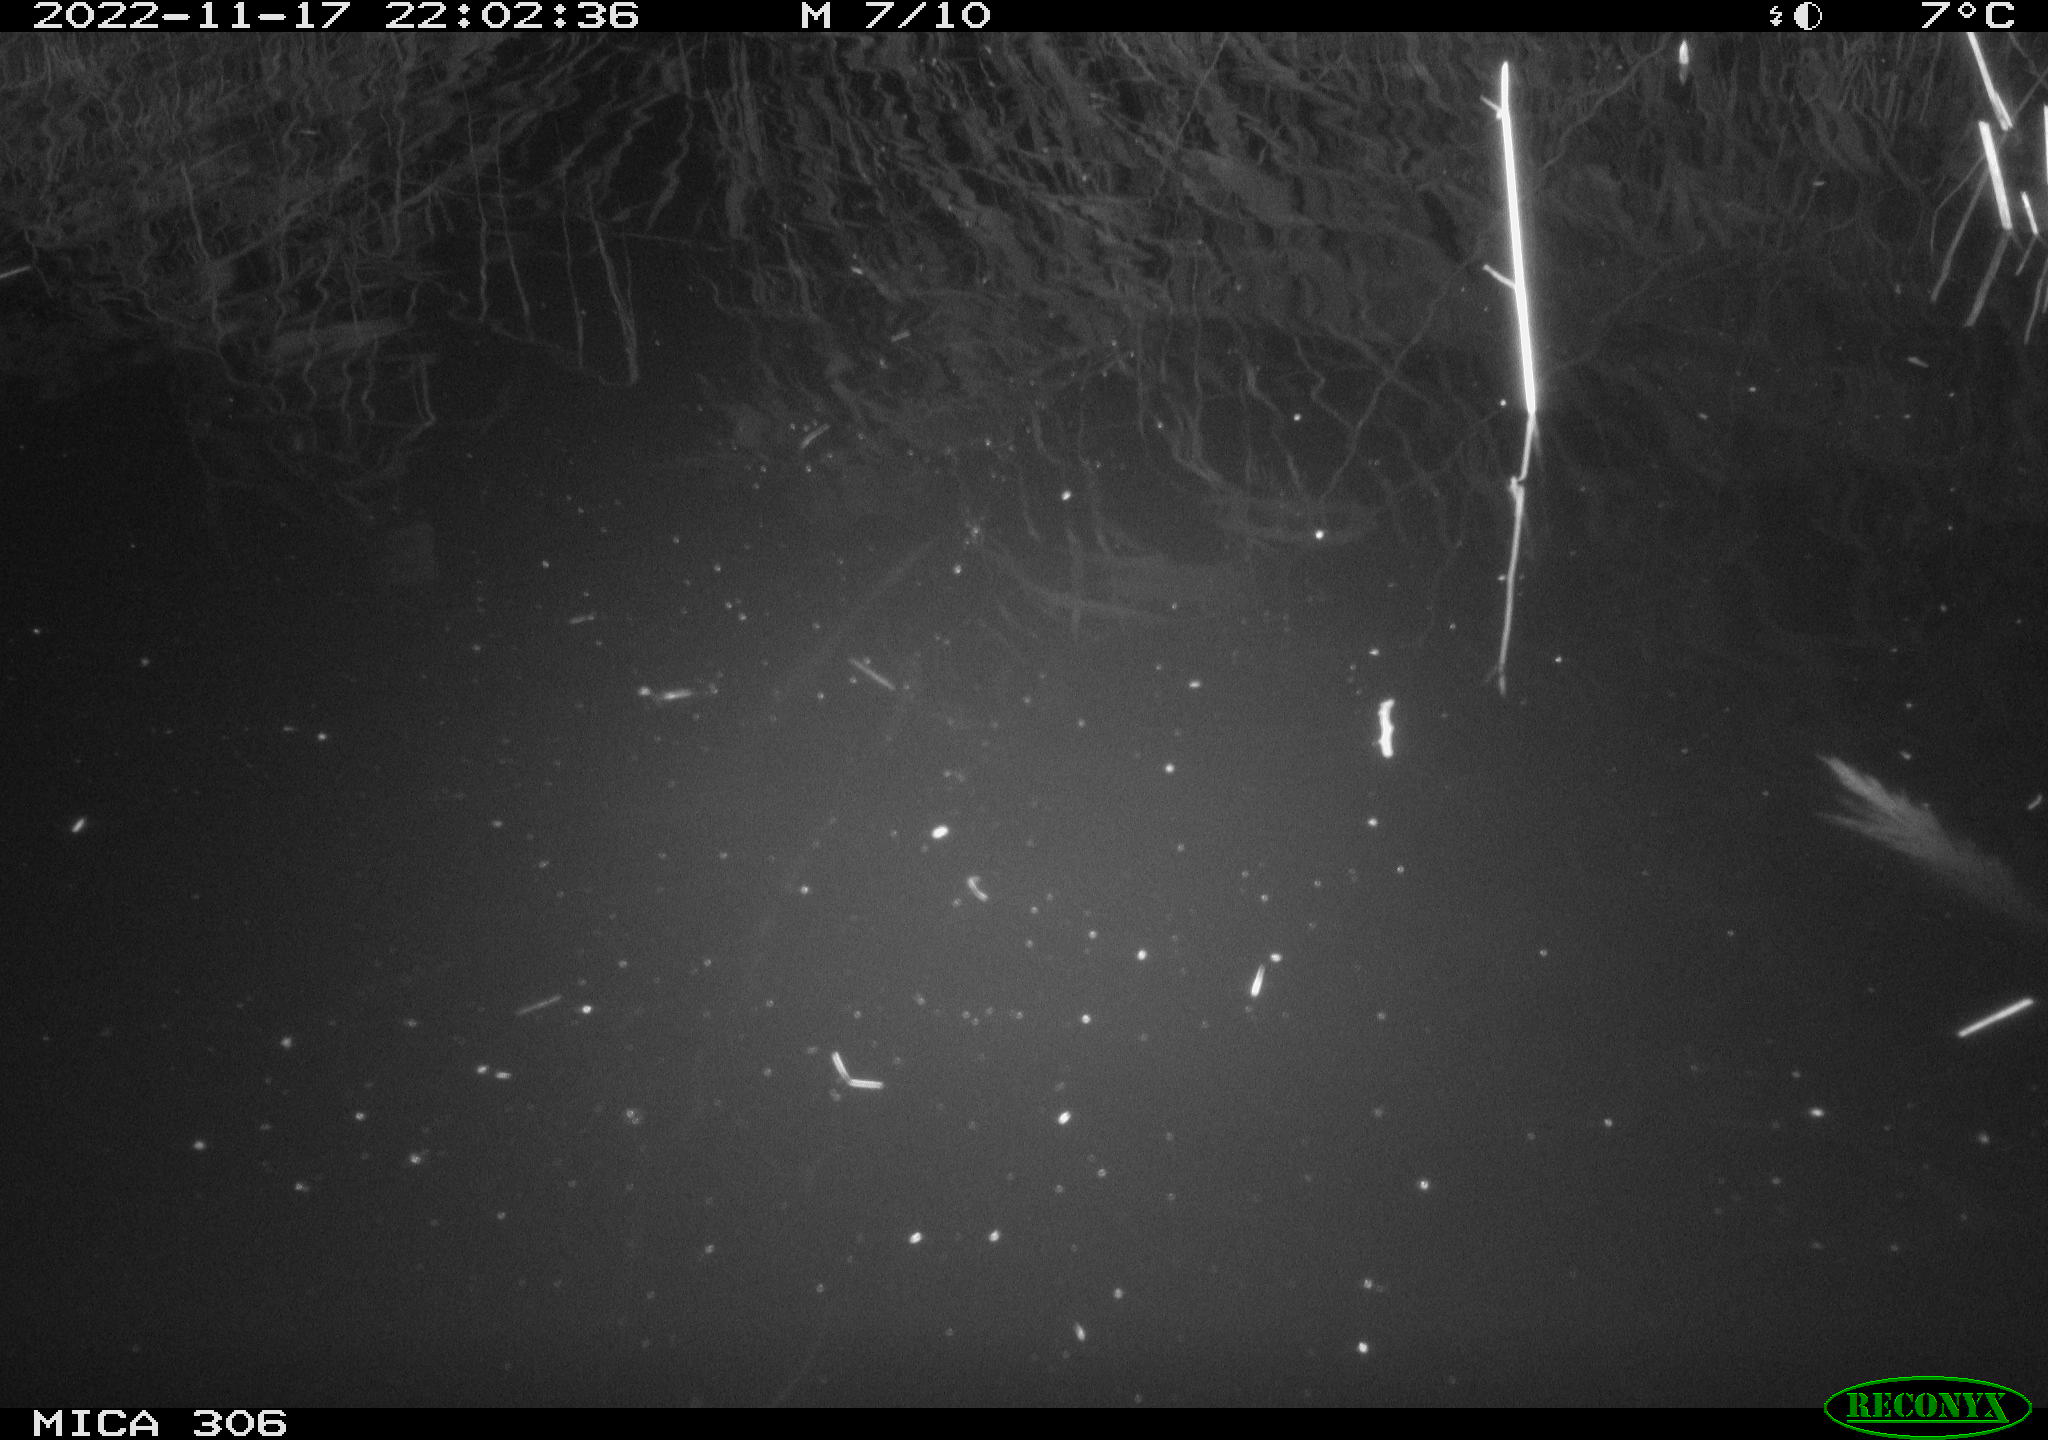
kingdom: Animalia
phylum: Chordata
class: Mammalia
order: Rodentia
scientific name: Rodentia
